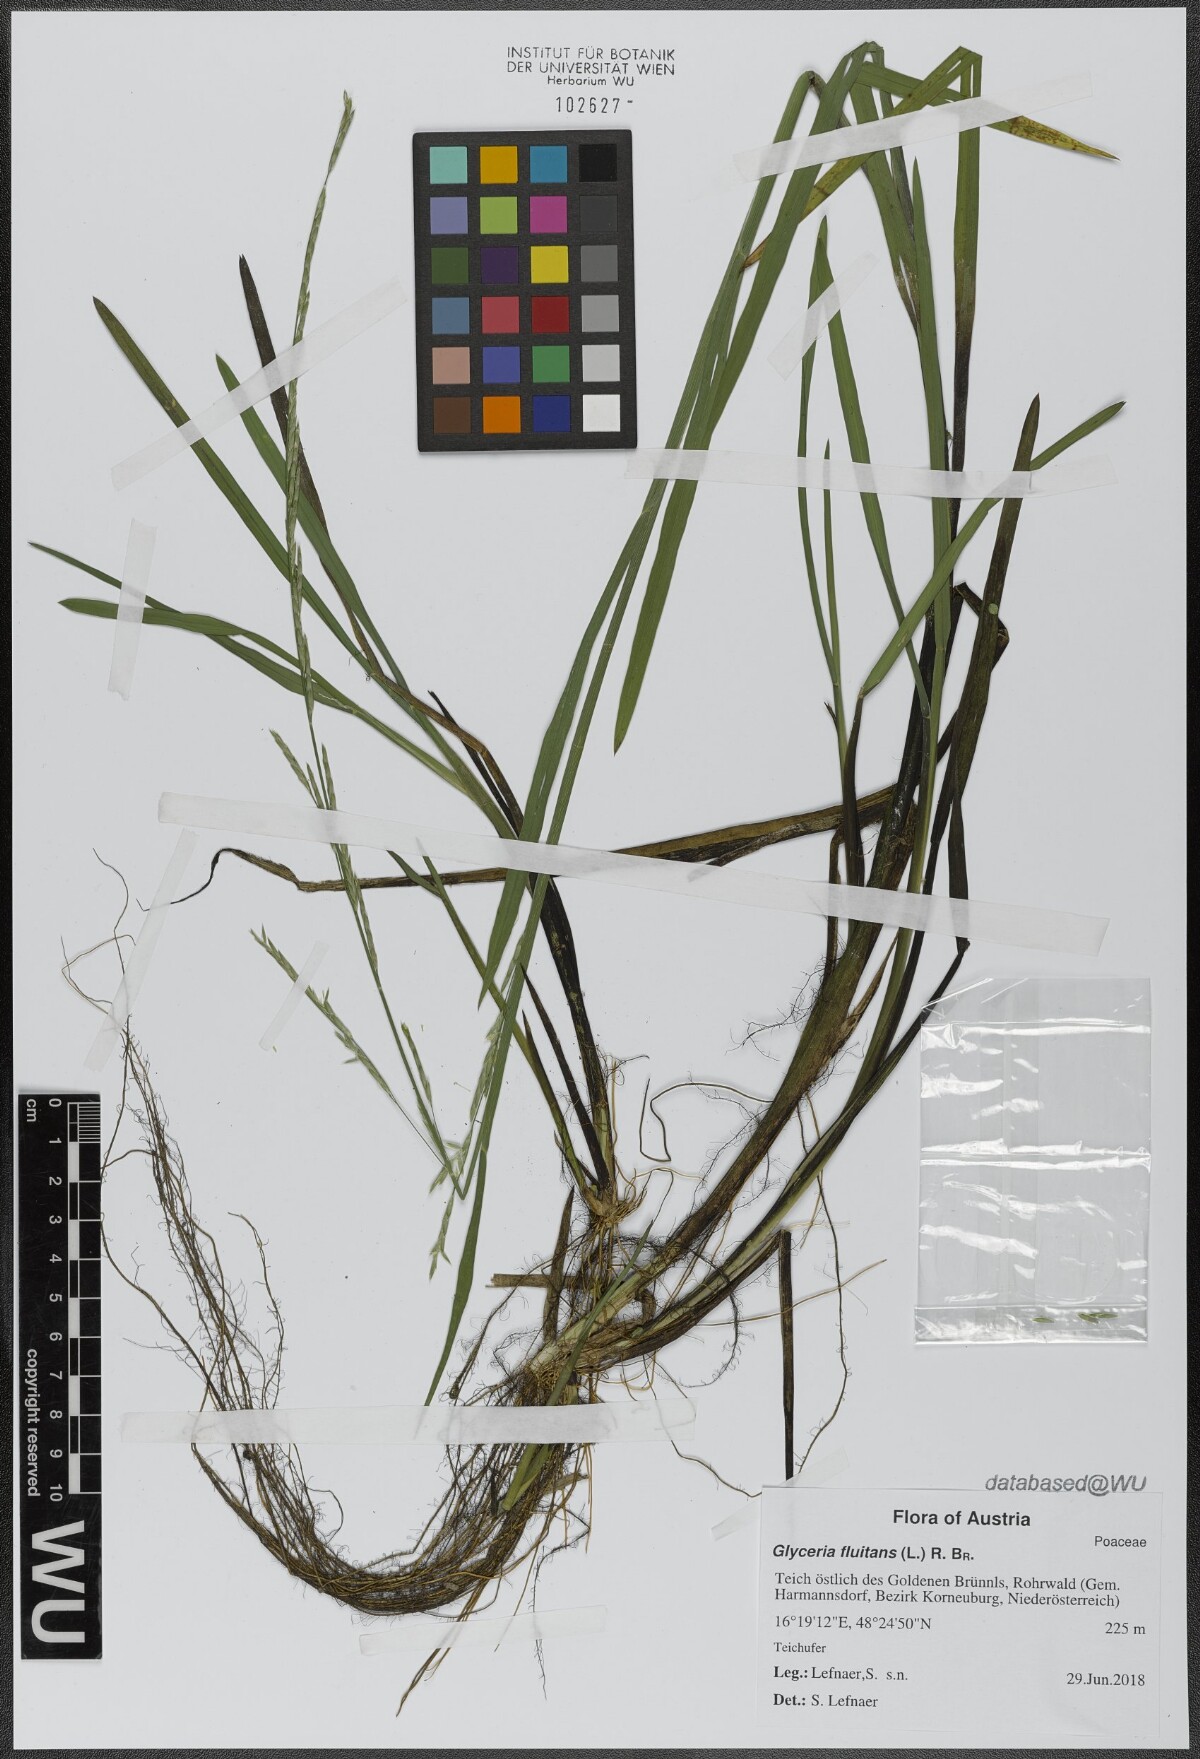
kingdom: Plantae
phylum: Tracheophyta
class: Liliopsida
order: Poales
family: Poaceae
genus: Glyceria
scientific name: Glyceria fluitans
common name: Floating sweet-grass
